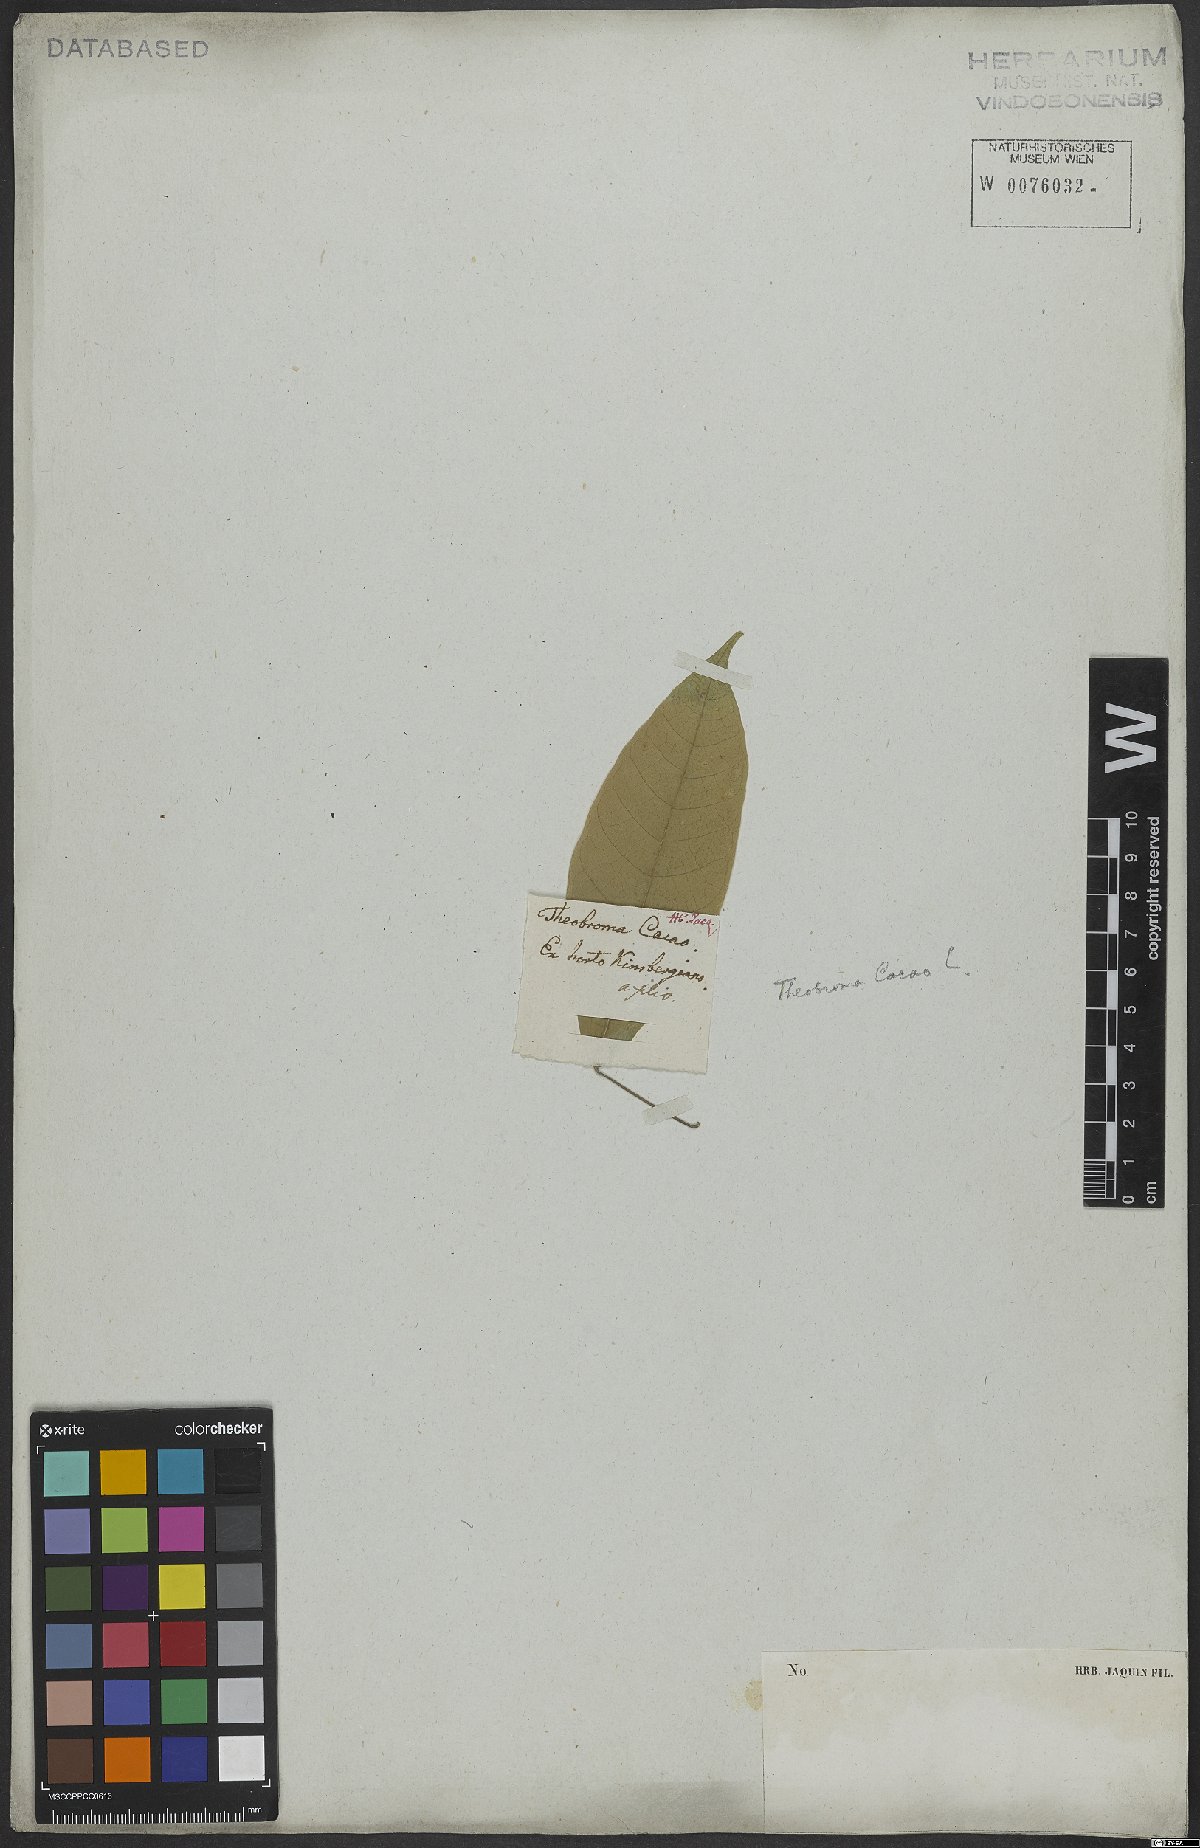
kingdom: Plantae
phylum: Tracheophyta
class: Magnoliopsida
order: Malvales
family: Malvaceae
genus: Theobroma
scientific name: Theobroma cacao
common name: Cocoa
